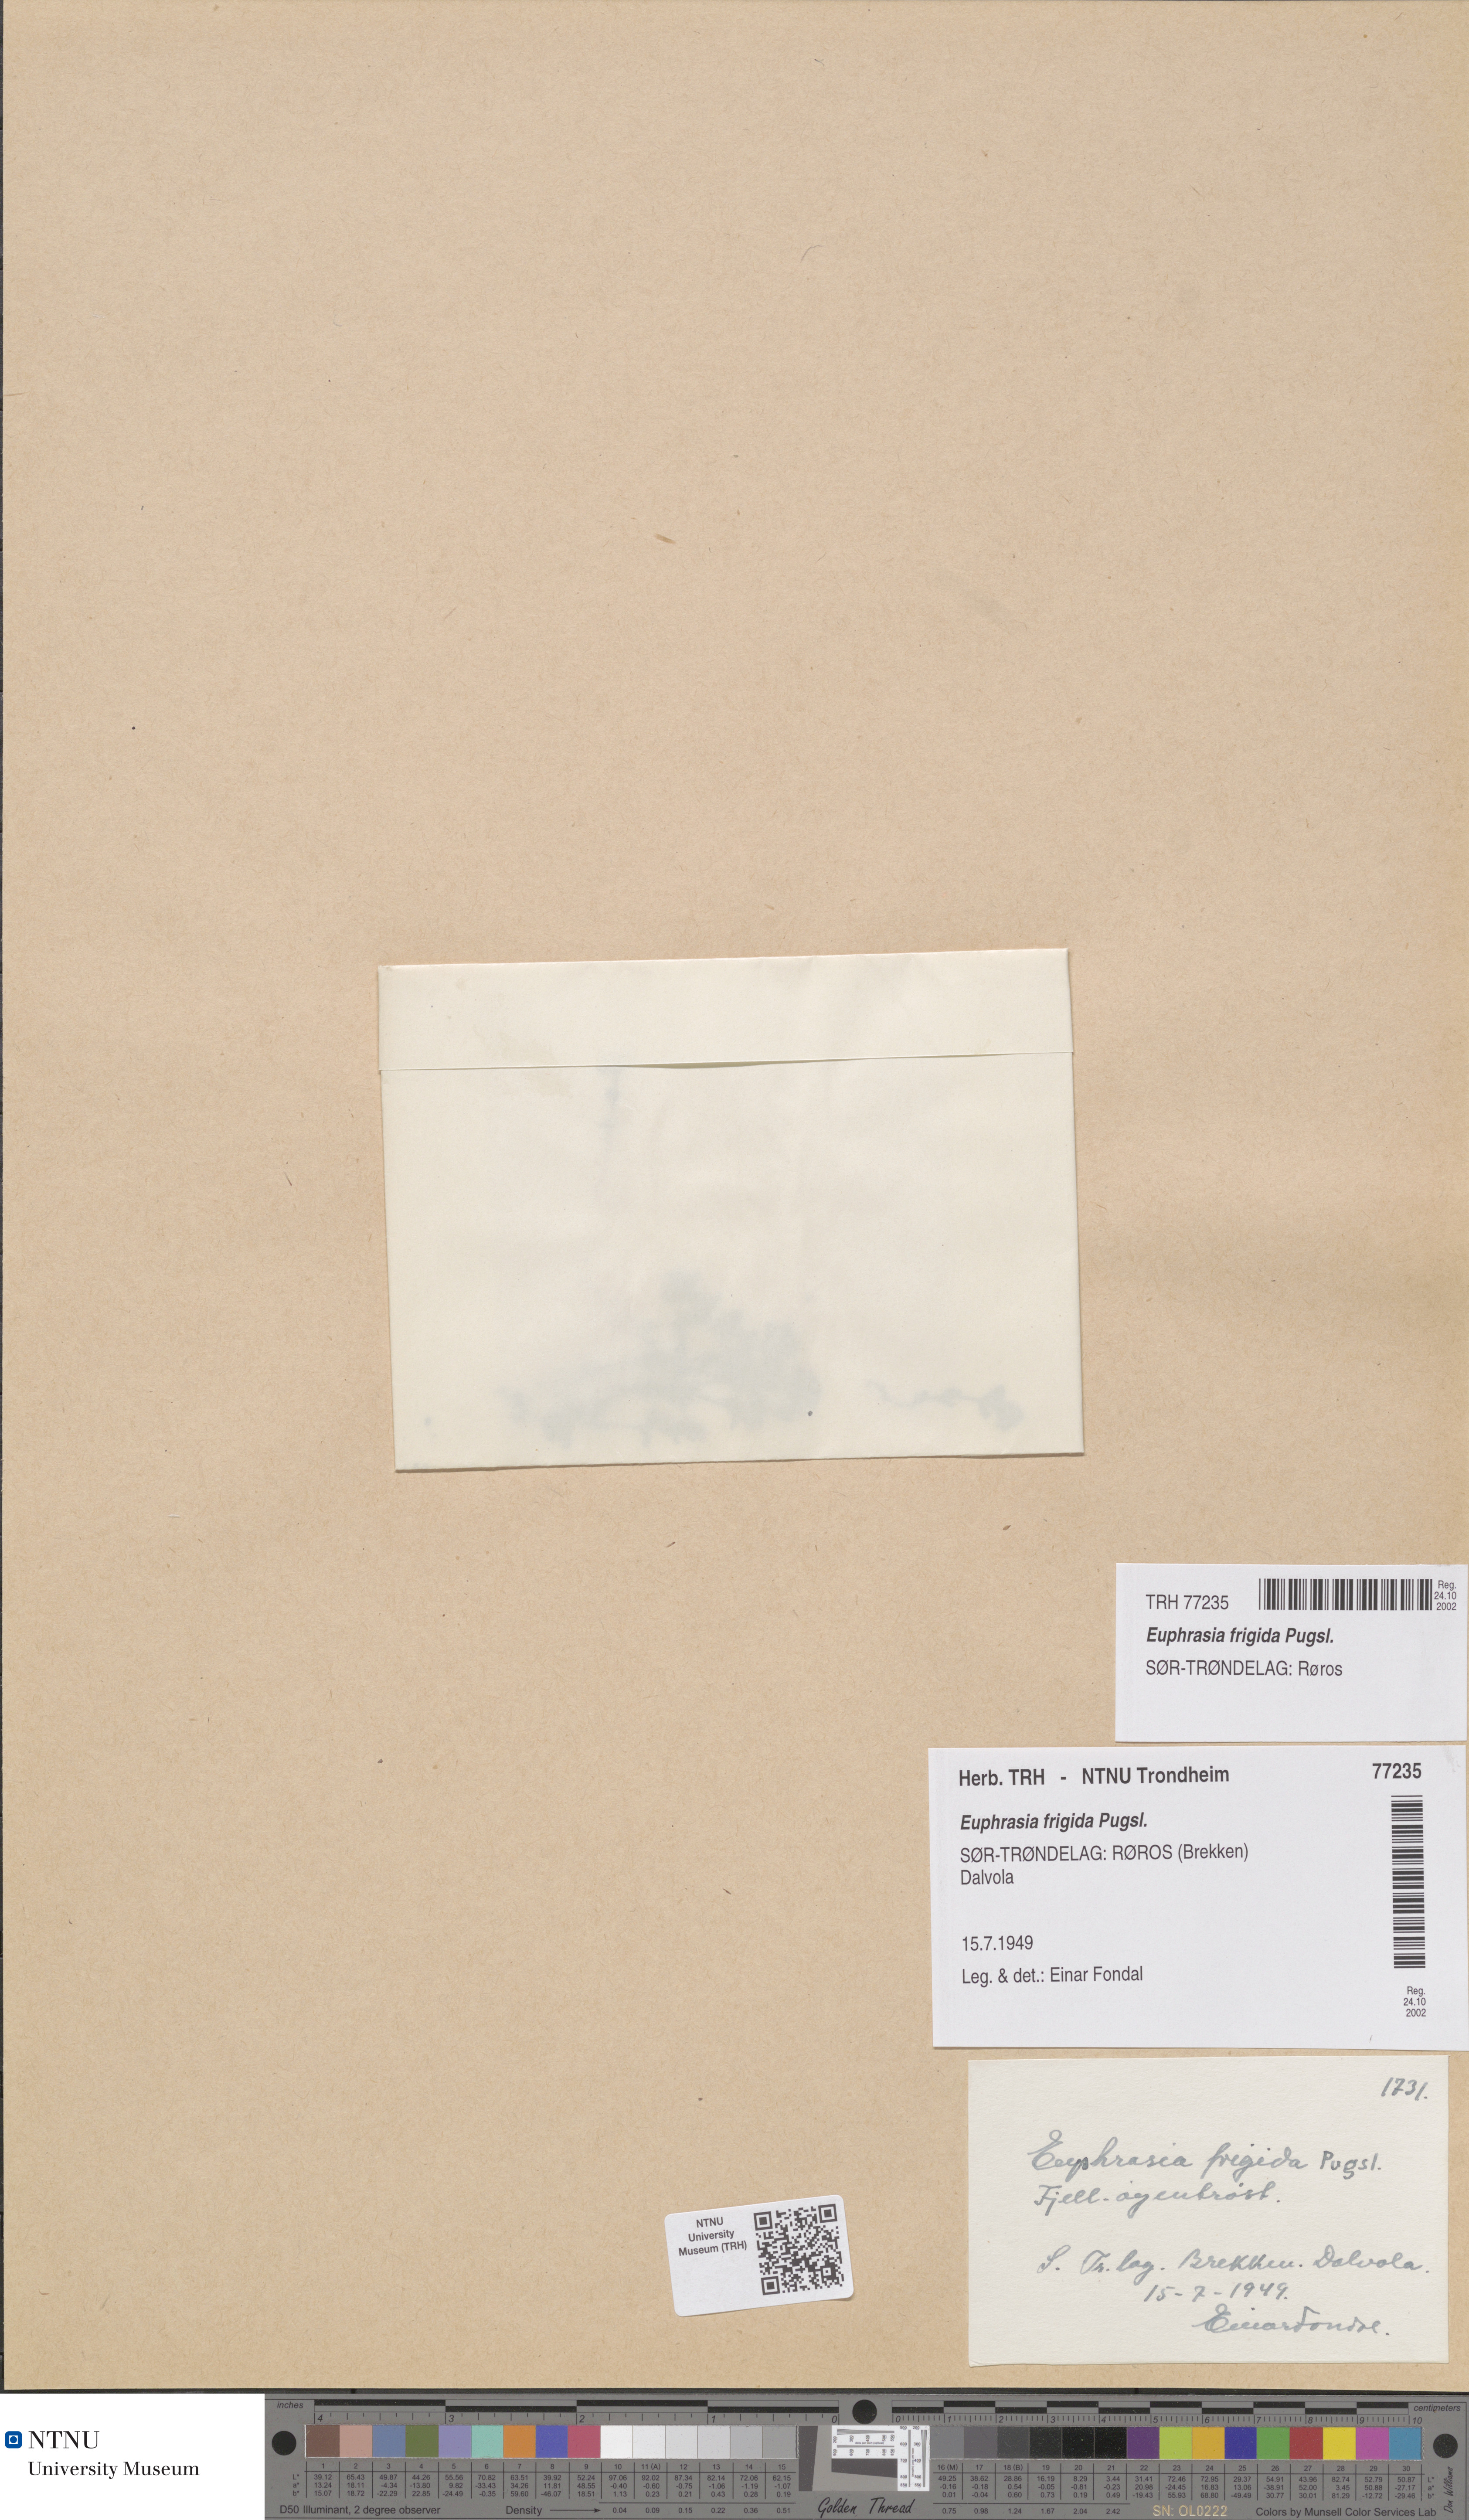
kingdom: Plantae
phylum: Tracheophyta
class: Magnoliopsida
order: Lamiales
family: Orobanchaceae
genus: Euphrasia
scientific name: Euphrasia wettsteinii
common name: Wettstein's eyebright
